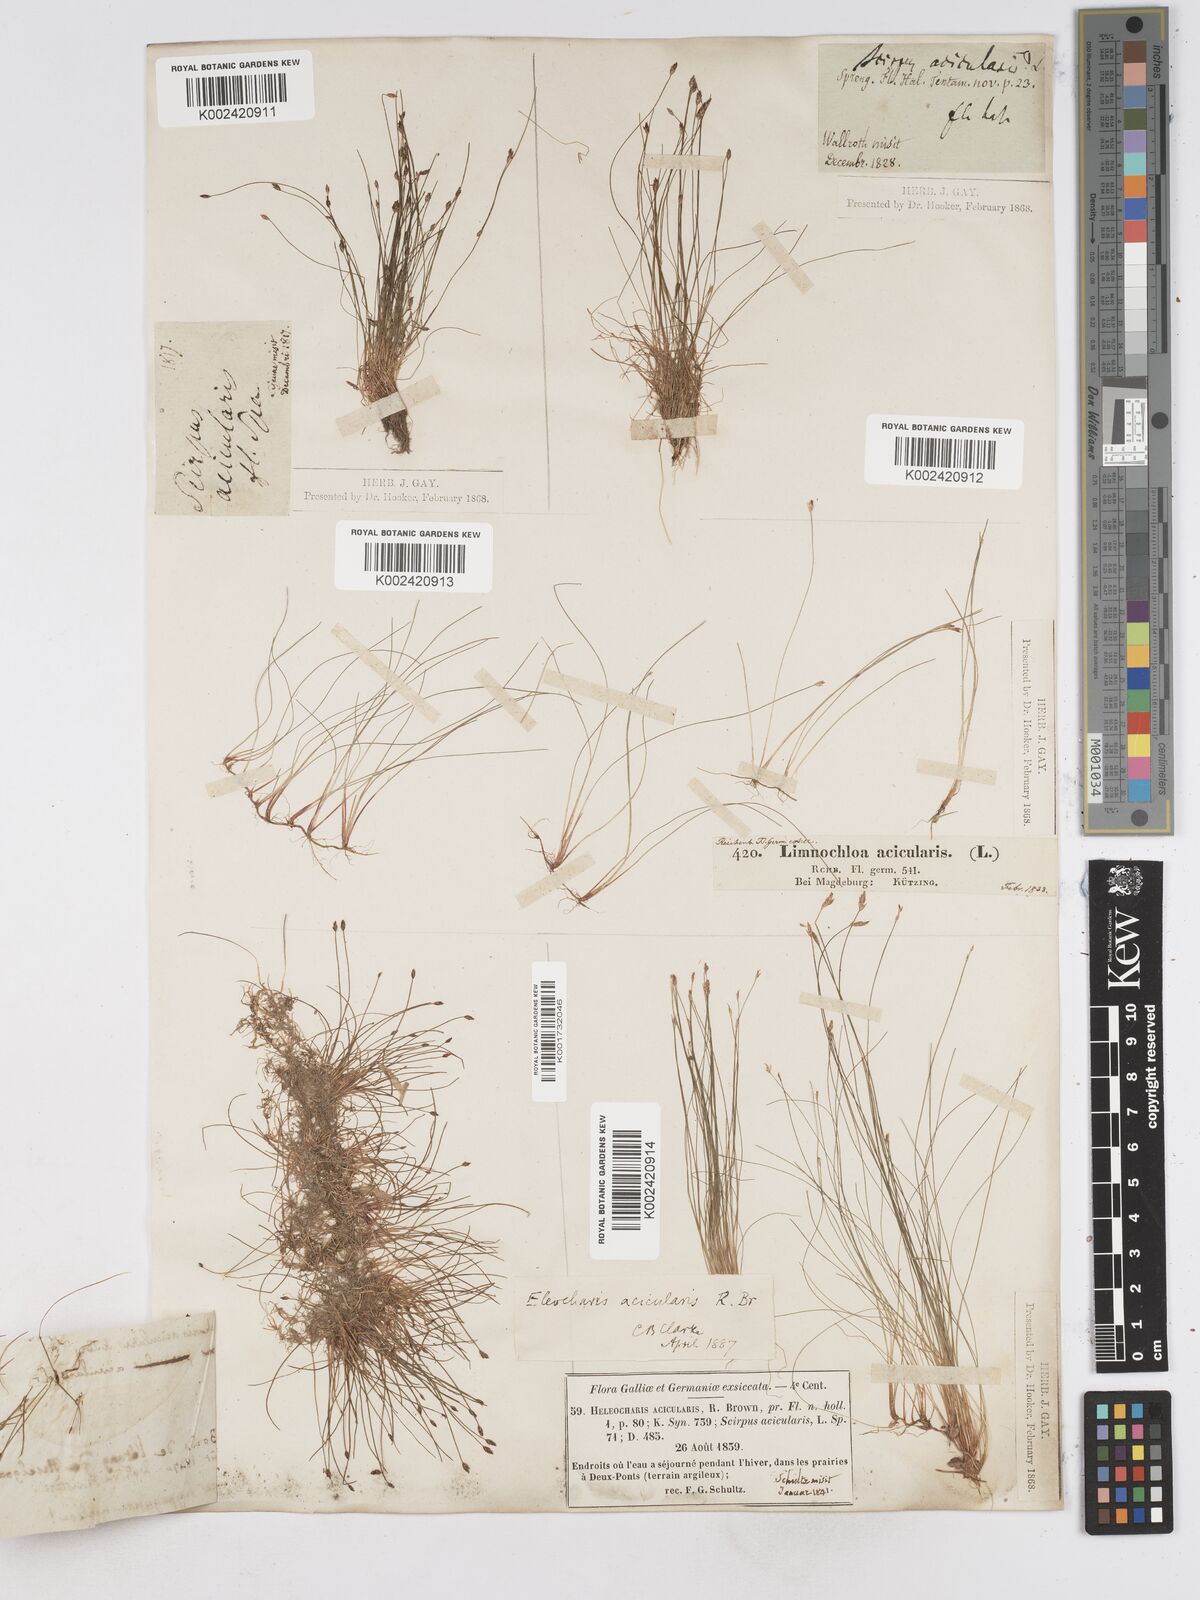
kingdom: Plantae
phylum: Tracheophyta
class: Liliopsida
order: Poales
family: Cyperaceae
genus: Eleocharis
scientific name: Eleocharis acicularis
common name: Needle spike-rush
